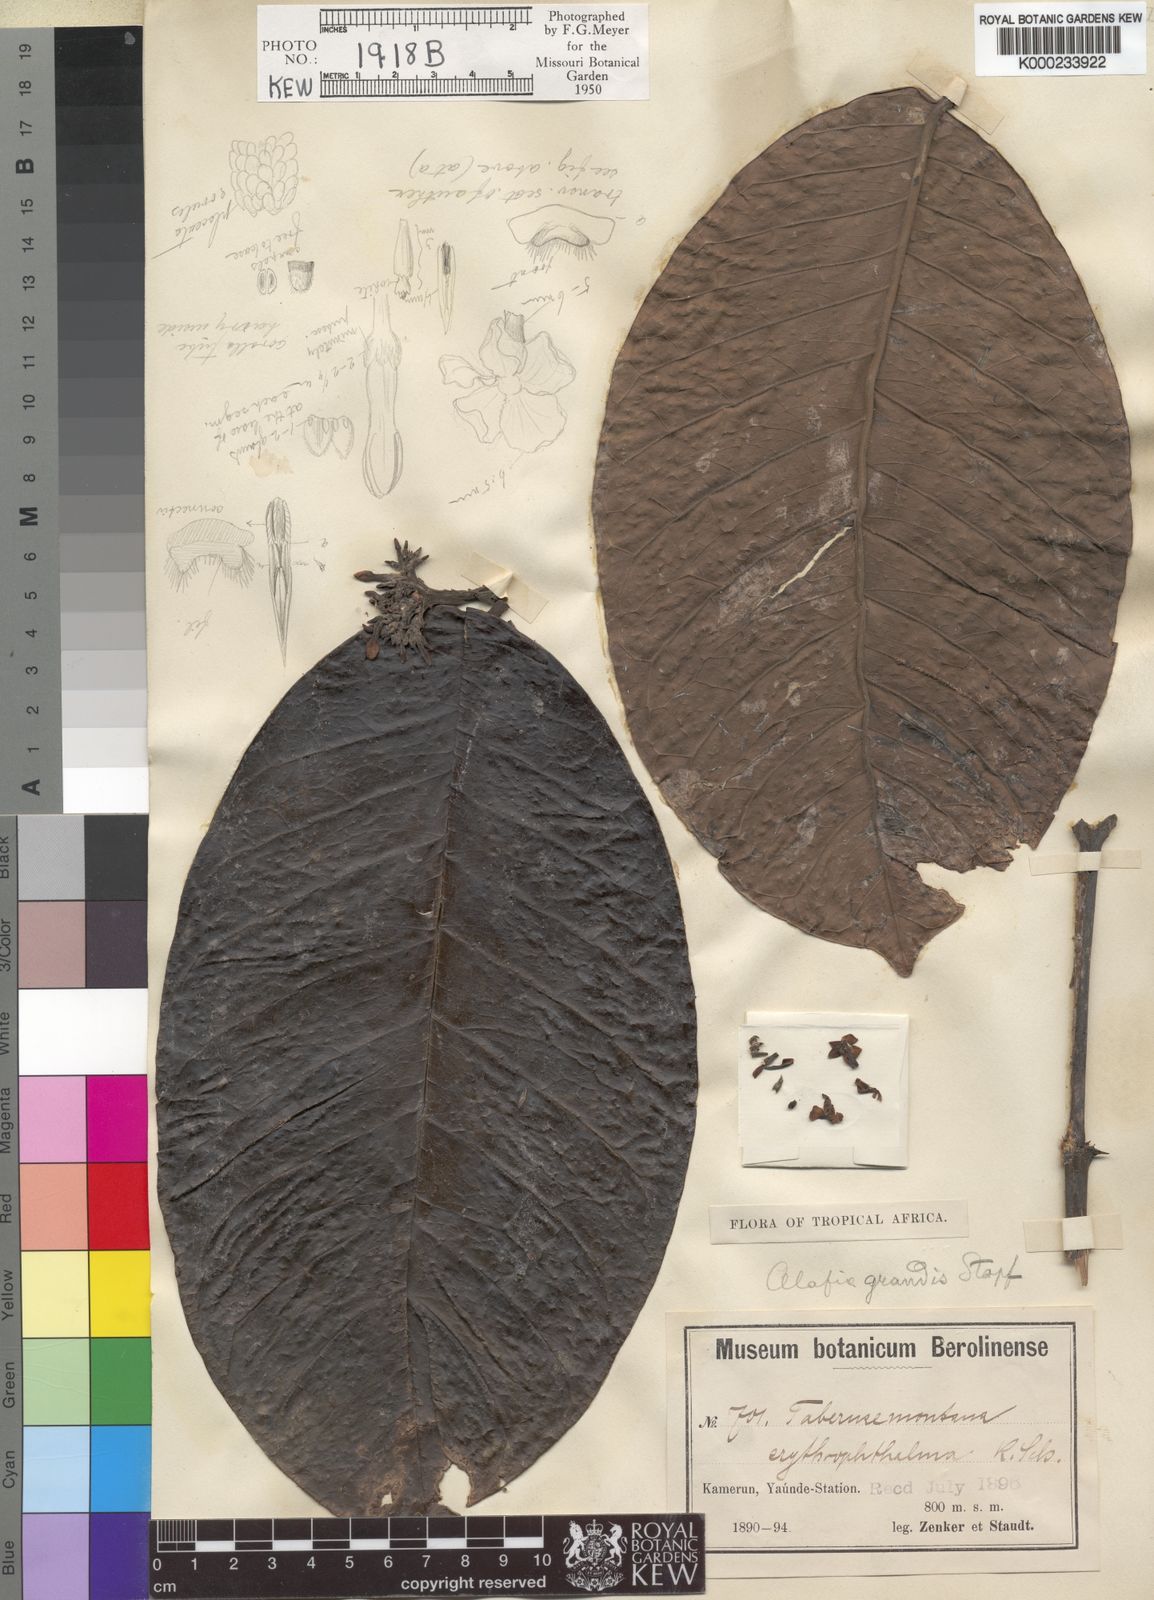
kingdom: Plantae
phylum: Tracheophyta
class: Magnoliopsida
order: Gentianales
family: Apocynaceae
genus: Alafia
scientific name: Alafia erythrophthalma
